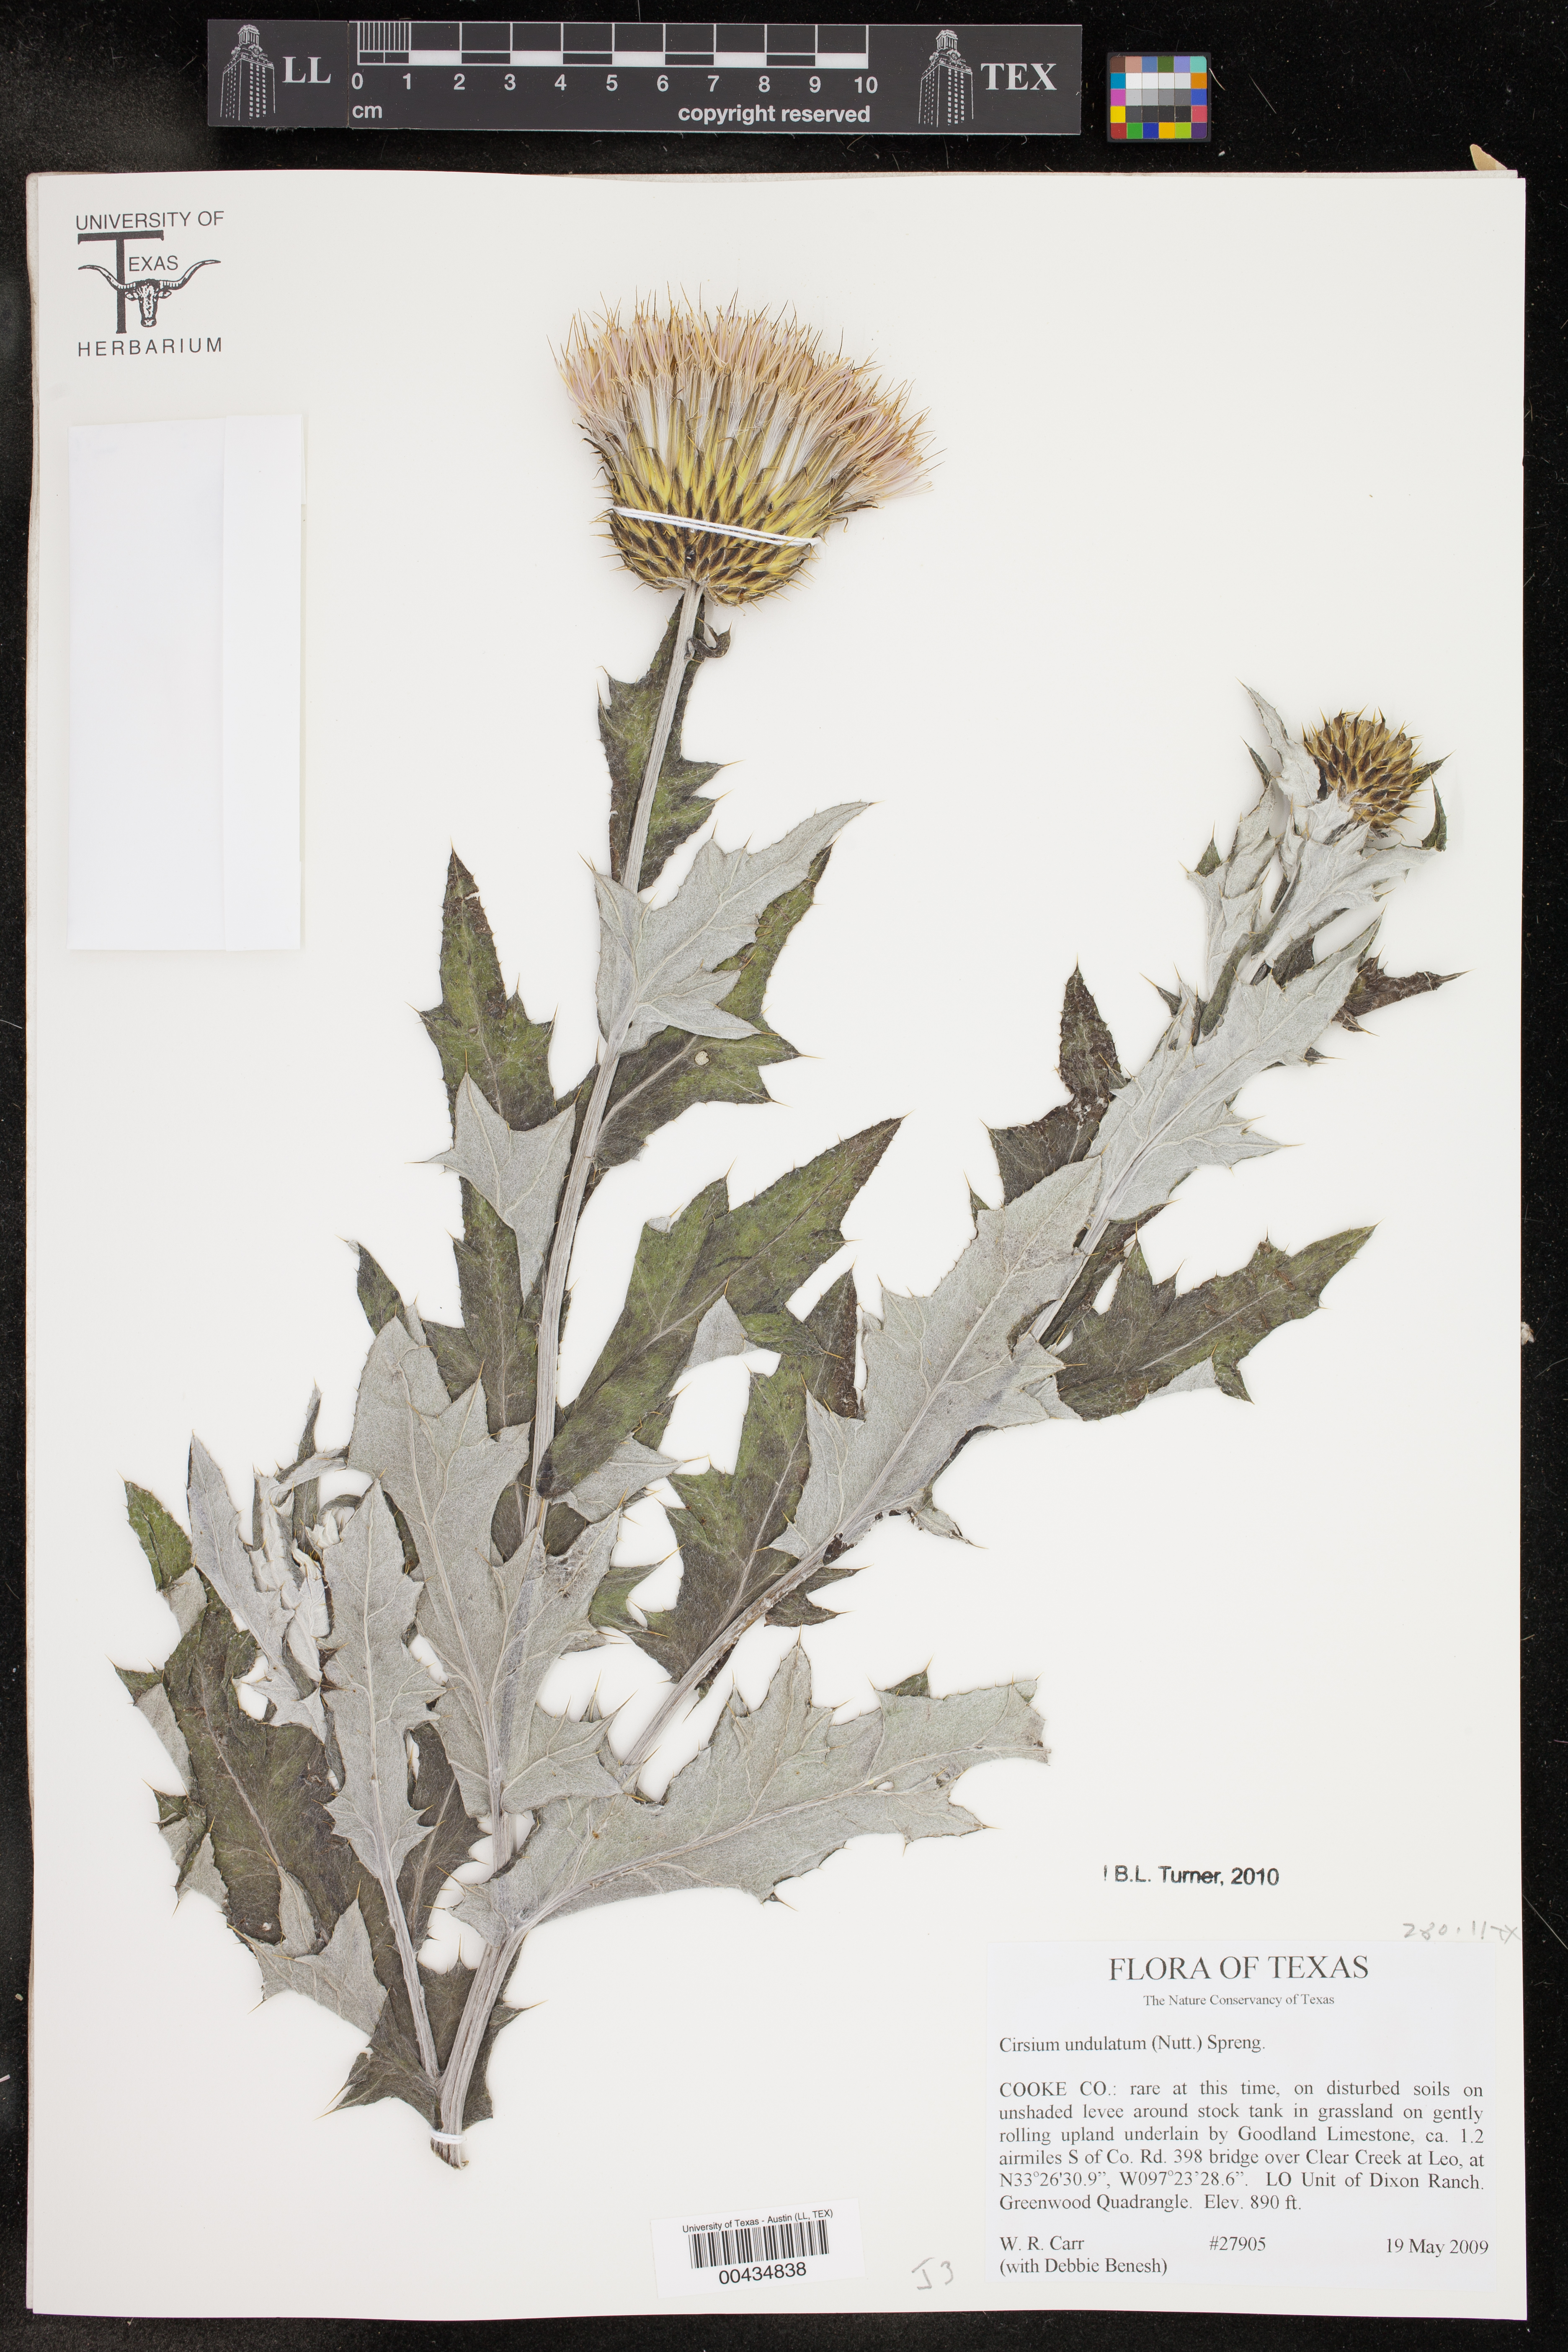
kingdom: Plantae
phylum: Tracheophyta
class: Magnoliopsida
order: Asterales
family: Asteraceae
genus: Cirsium
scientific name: Cirsium undulatum
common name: Pasture thistle
